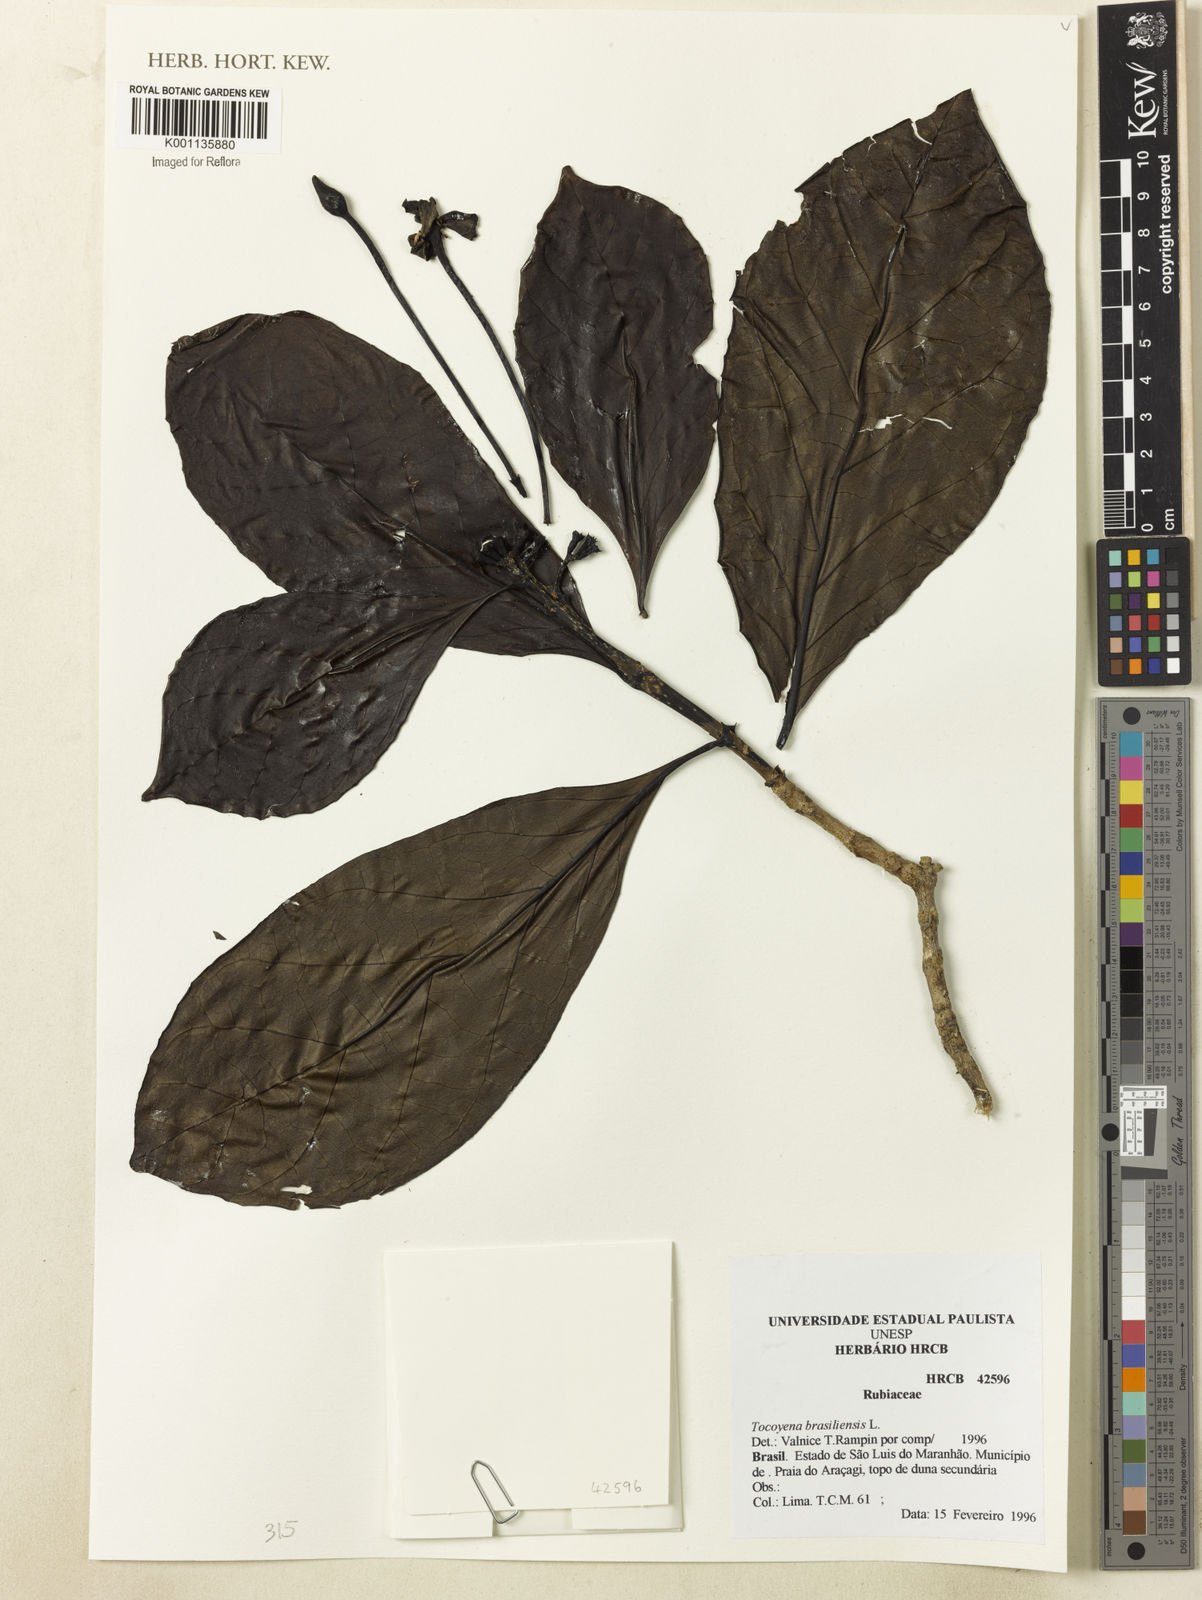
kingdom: Plantae
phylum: Tracheophyta
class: Magnoliopsida
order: Gentianales
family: Rubiaceae
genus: Tocoyena
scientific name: Tocoyena sprucei
